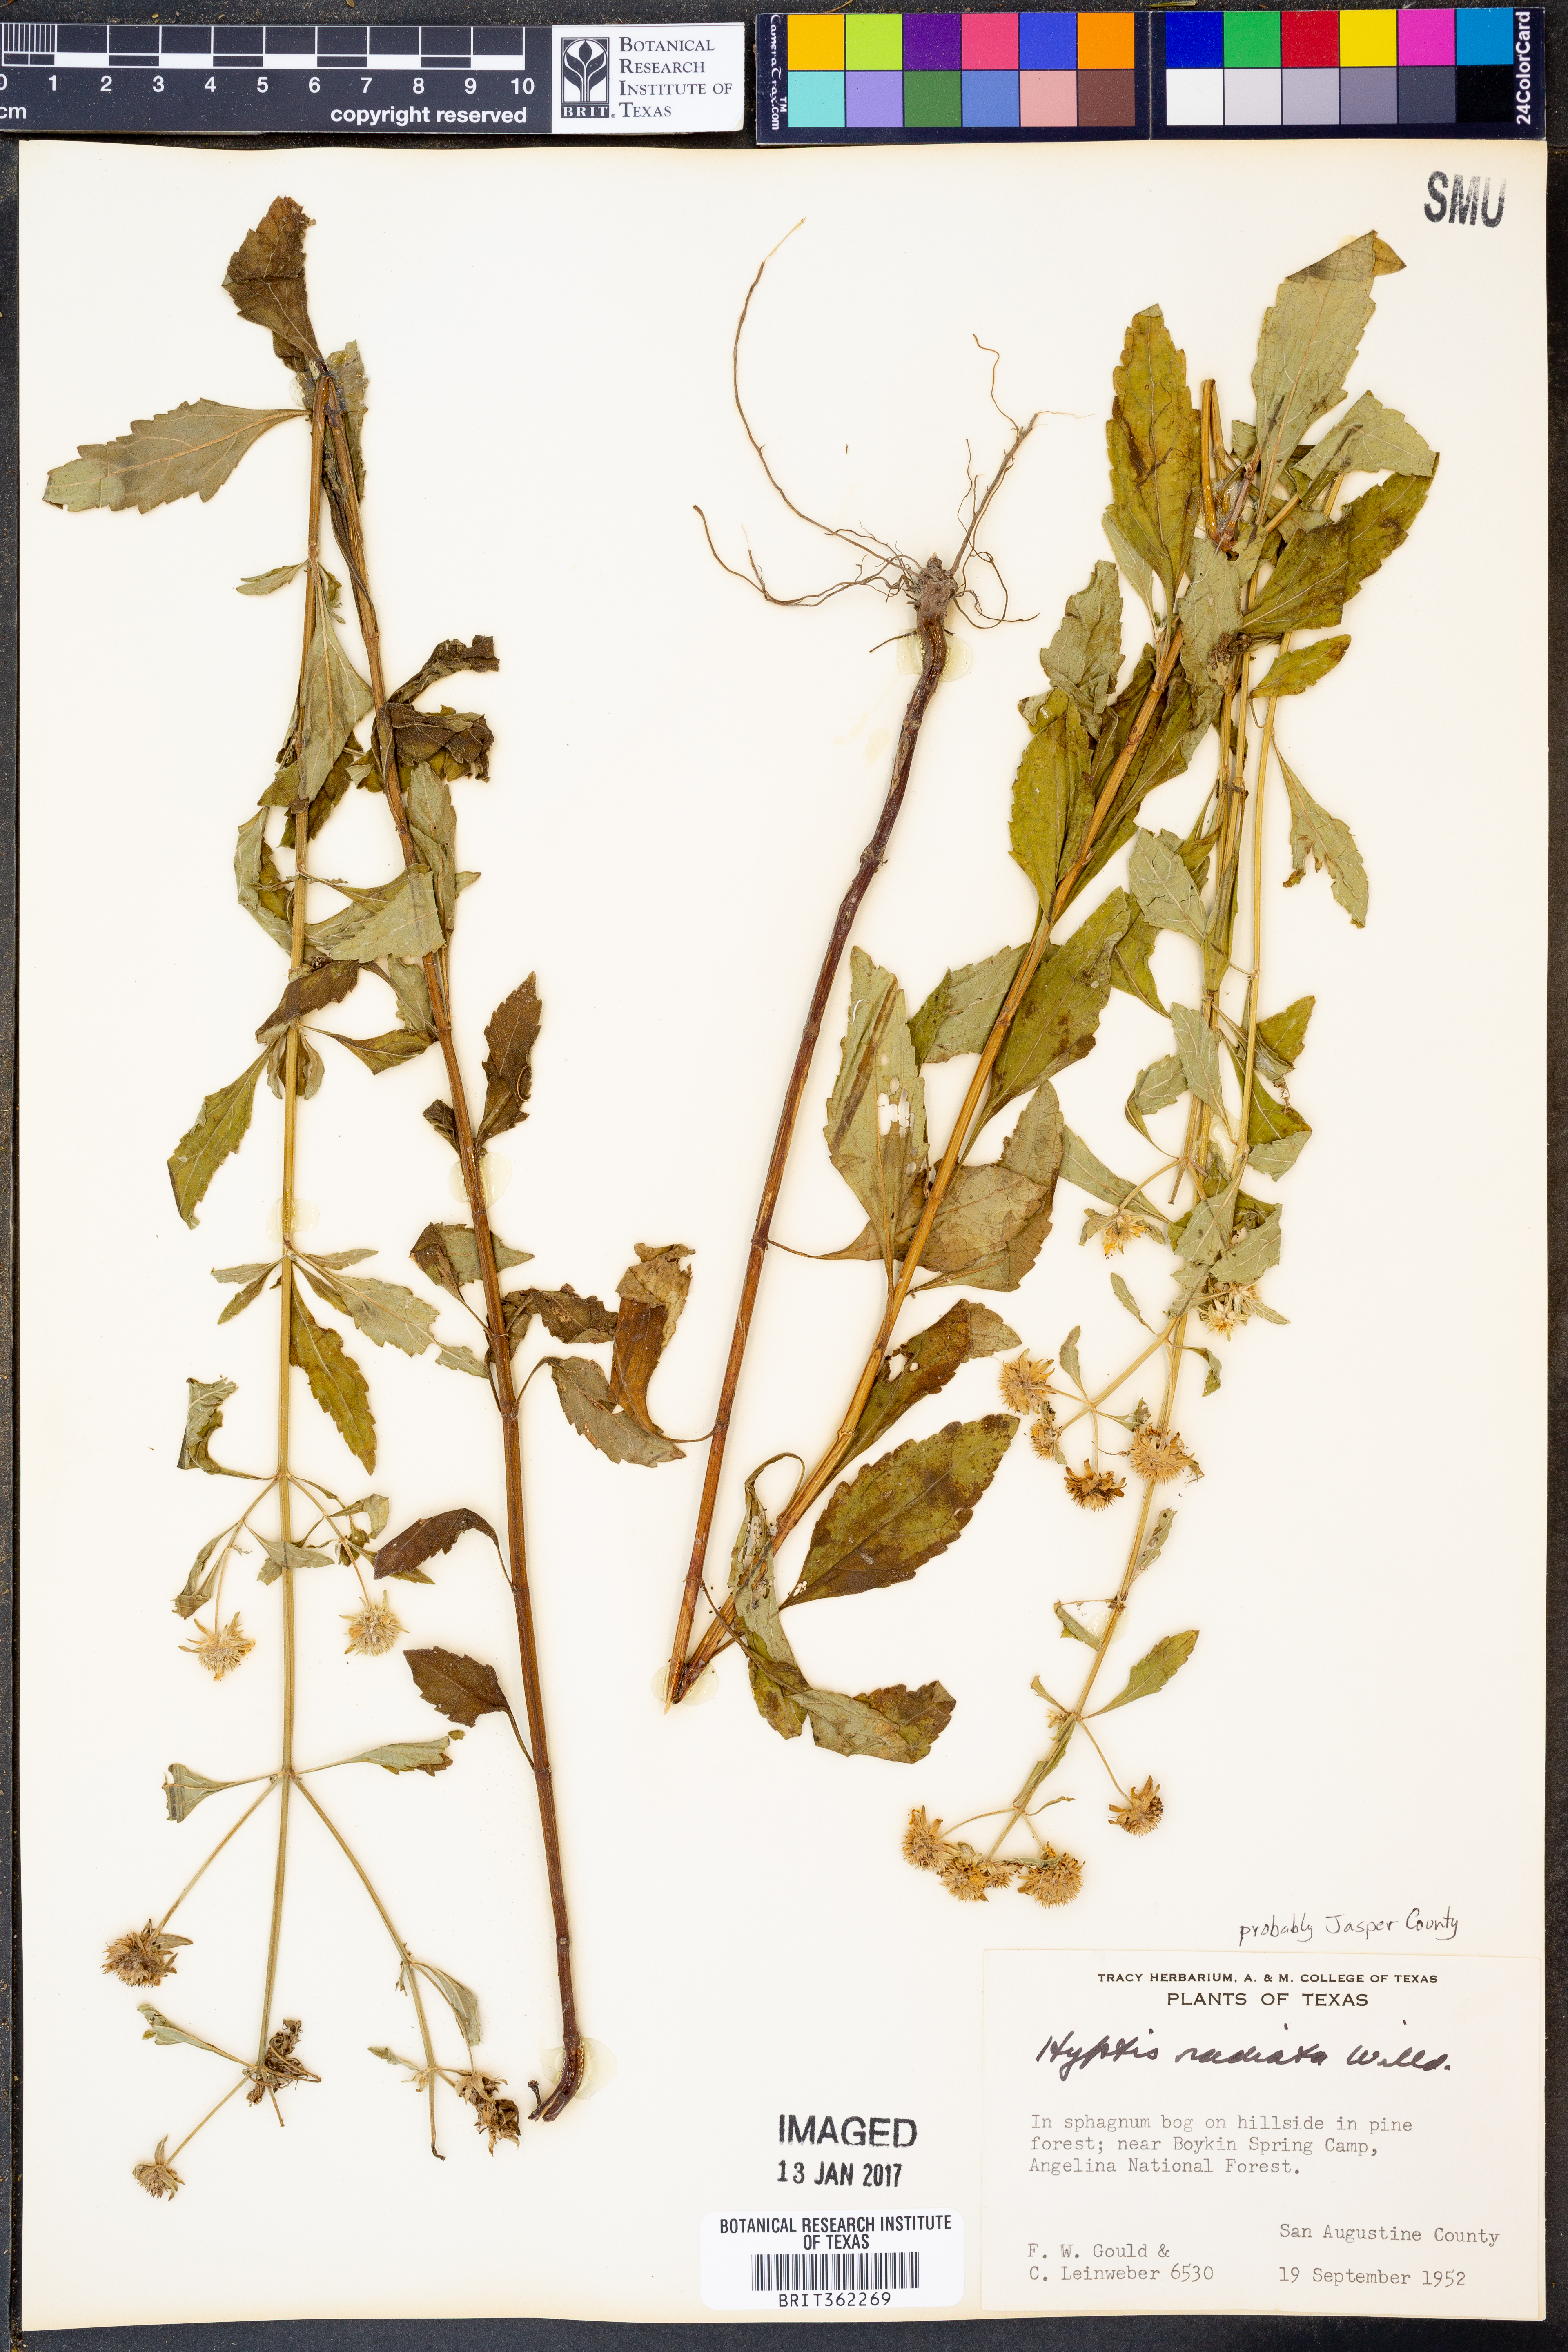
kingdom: Plantae
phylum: Tracheophyta
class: Magnoliopsida
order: Lamiales
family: Lamiaceae
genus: Hyptis
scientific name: Hyptis alata
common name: Cluster bush-mint
